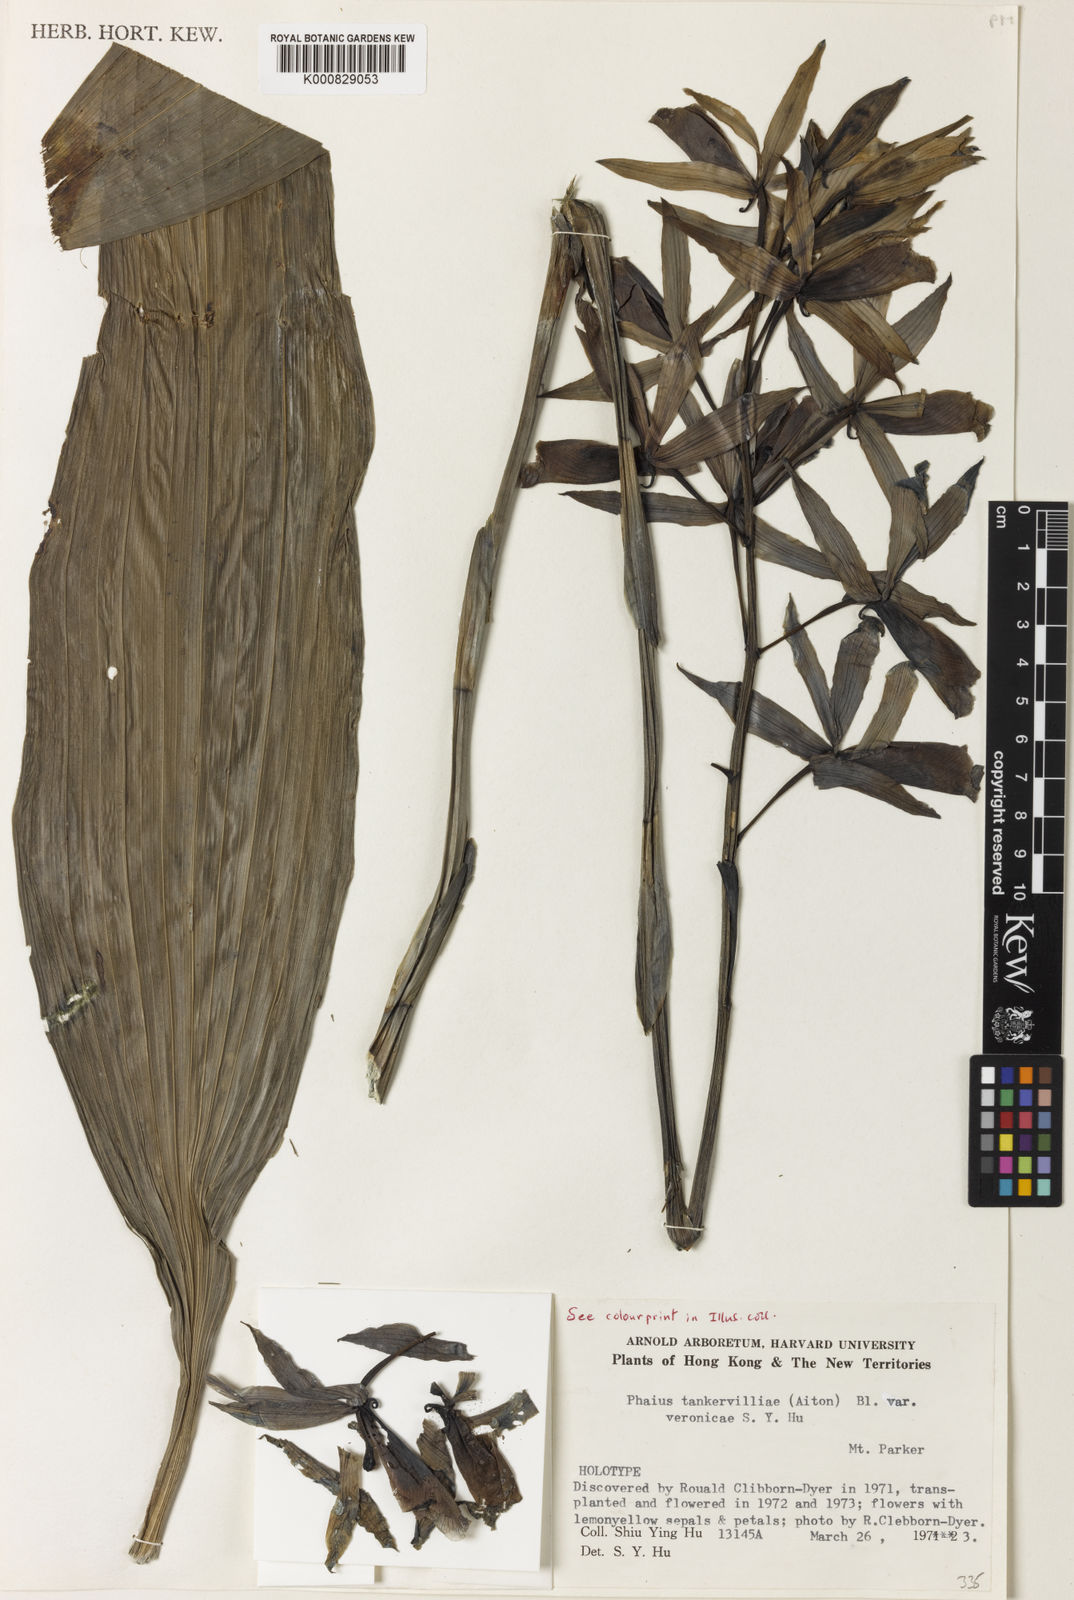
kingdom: Plantae
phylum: Tracheophyta
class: Liliopsida
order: Asparagales
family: Orchidaceae
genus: Calanthe
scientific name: Calanthe tankervilleae
